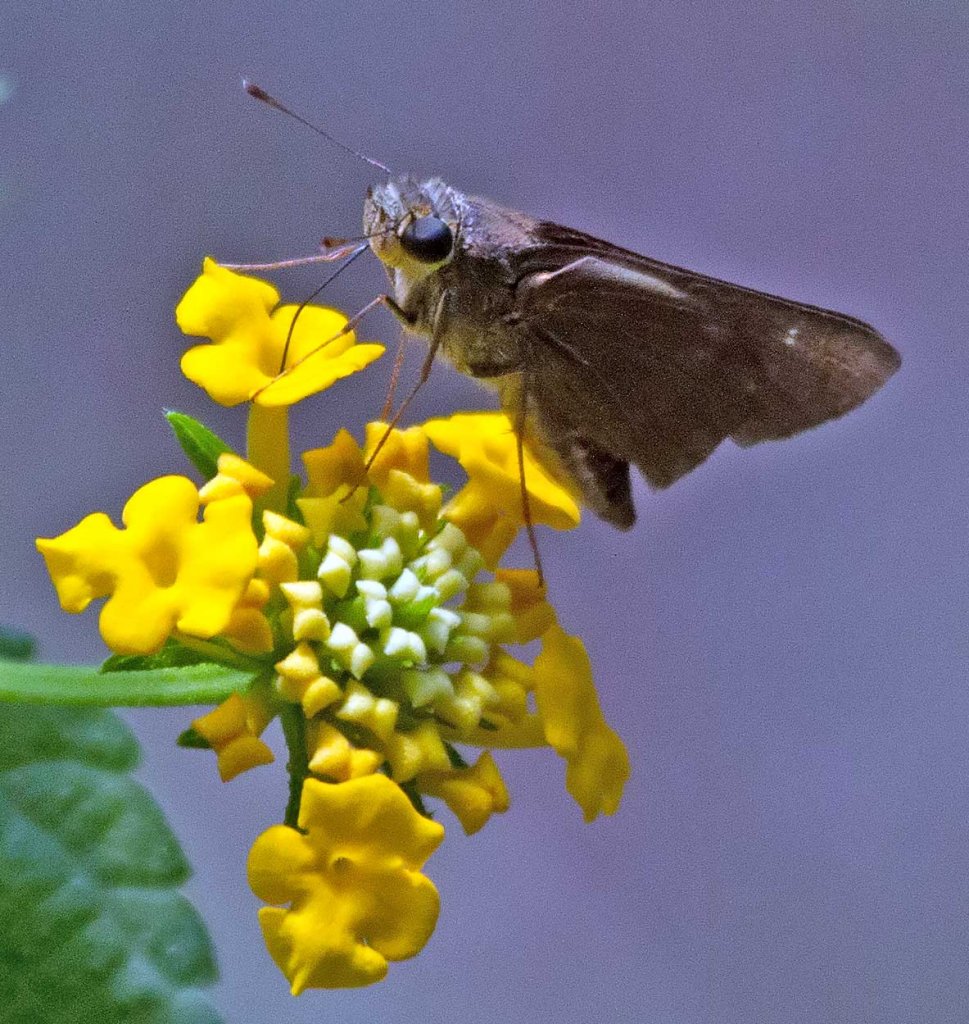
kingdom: Animalia
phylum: Arthropoda
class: Insecta
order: Lepidoptera
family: Hesperiidae
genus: Panoquina
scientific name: Panoquina ocola
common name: Ocola Skipper
